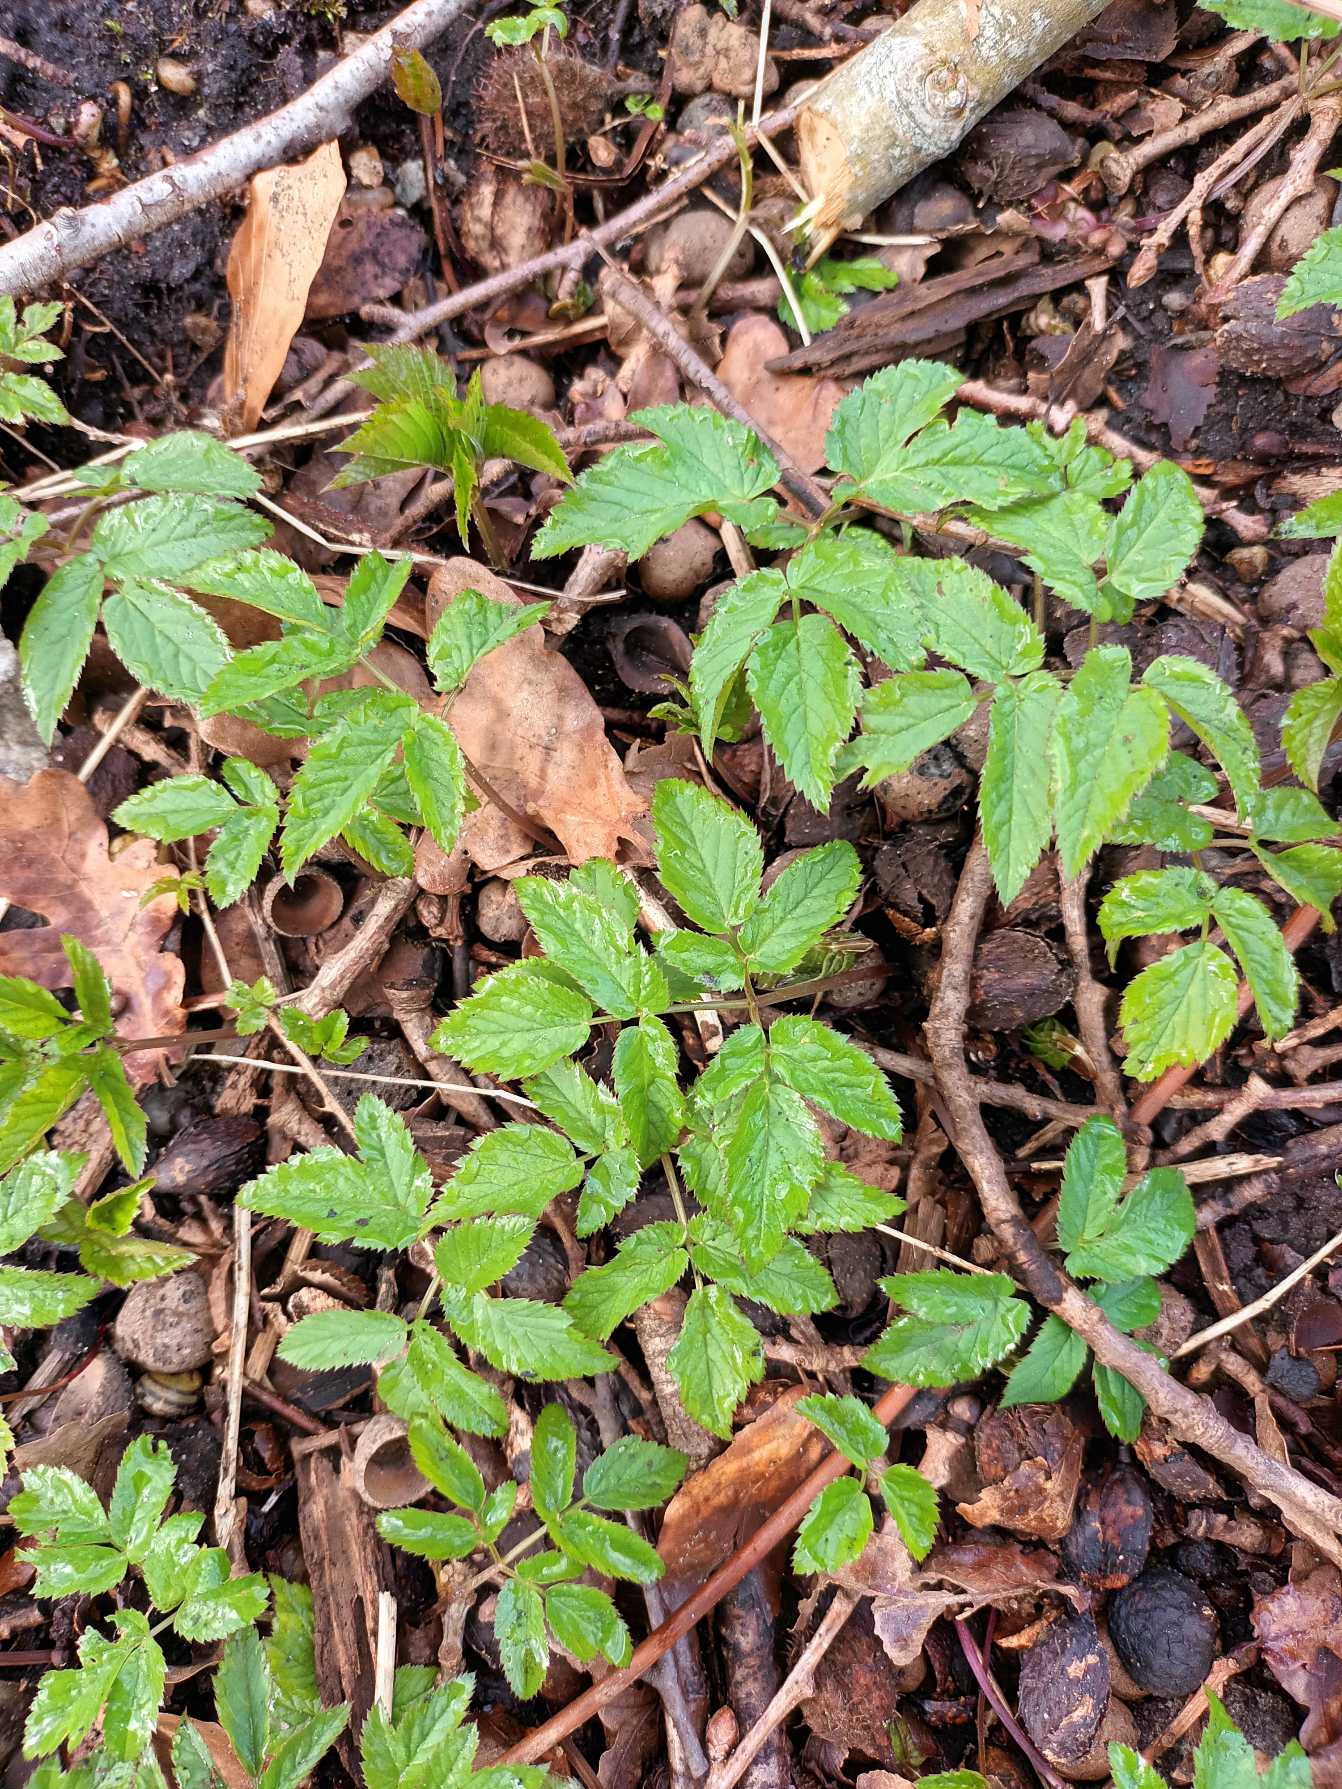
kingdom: Plantae
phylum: Tracheophyta
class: Magnoliopsida
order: Apiales
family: Apiaceae
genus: Aegopodium
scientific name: Aegopodium podagraria
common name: Skvalderkål
